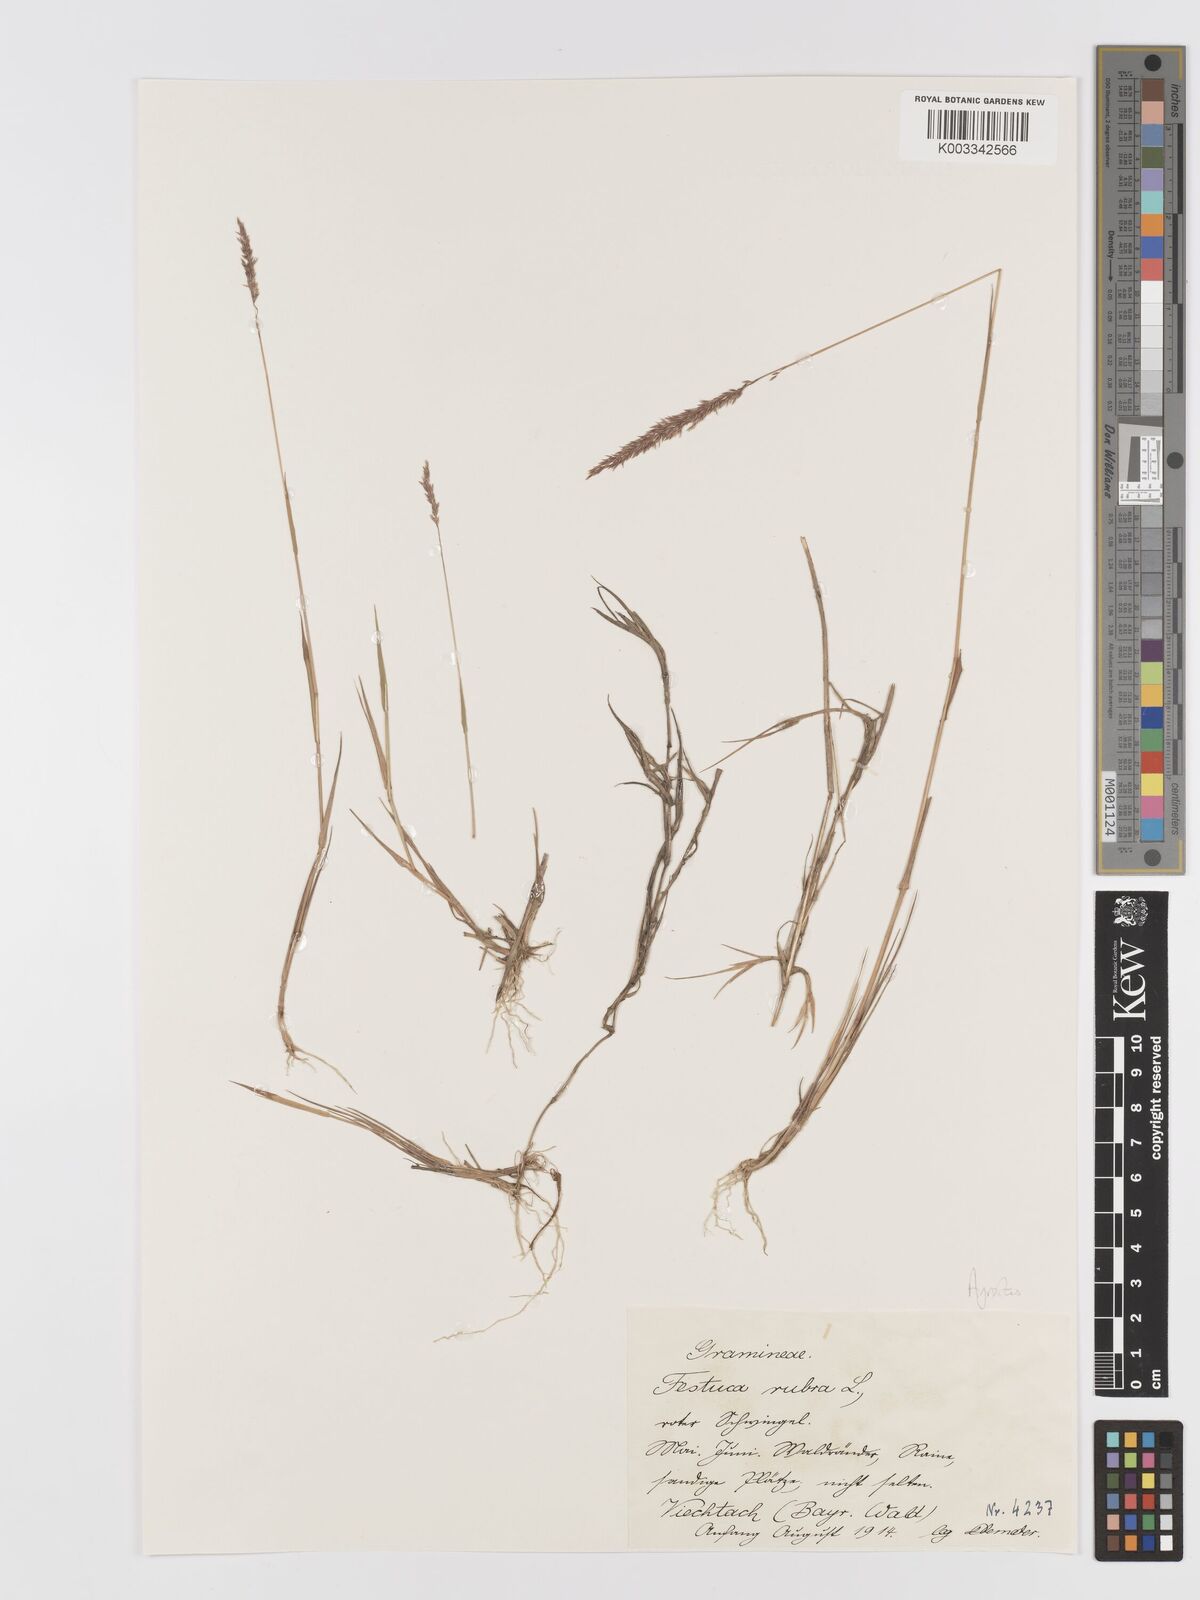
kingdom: Plantae
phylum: Tracheophyta
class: Liliopsida
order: Poales
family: Poaceae
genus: Agrostis
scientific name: Agrostis
